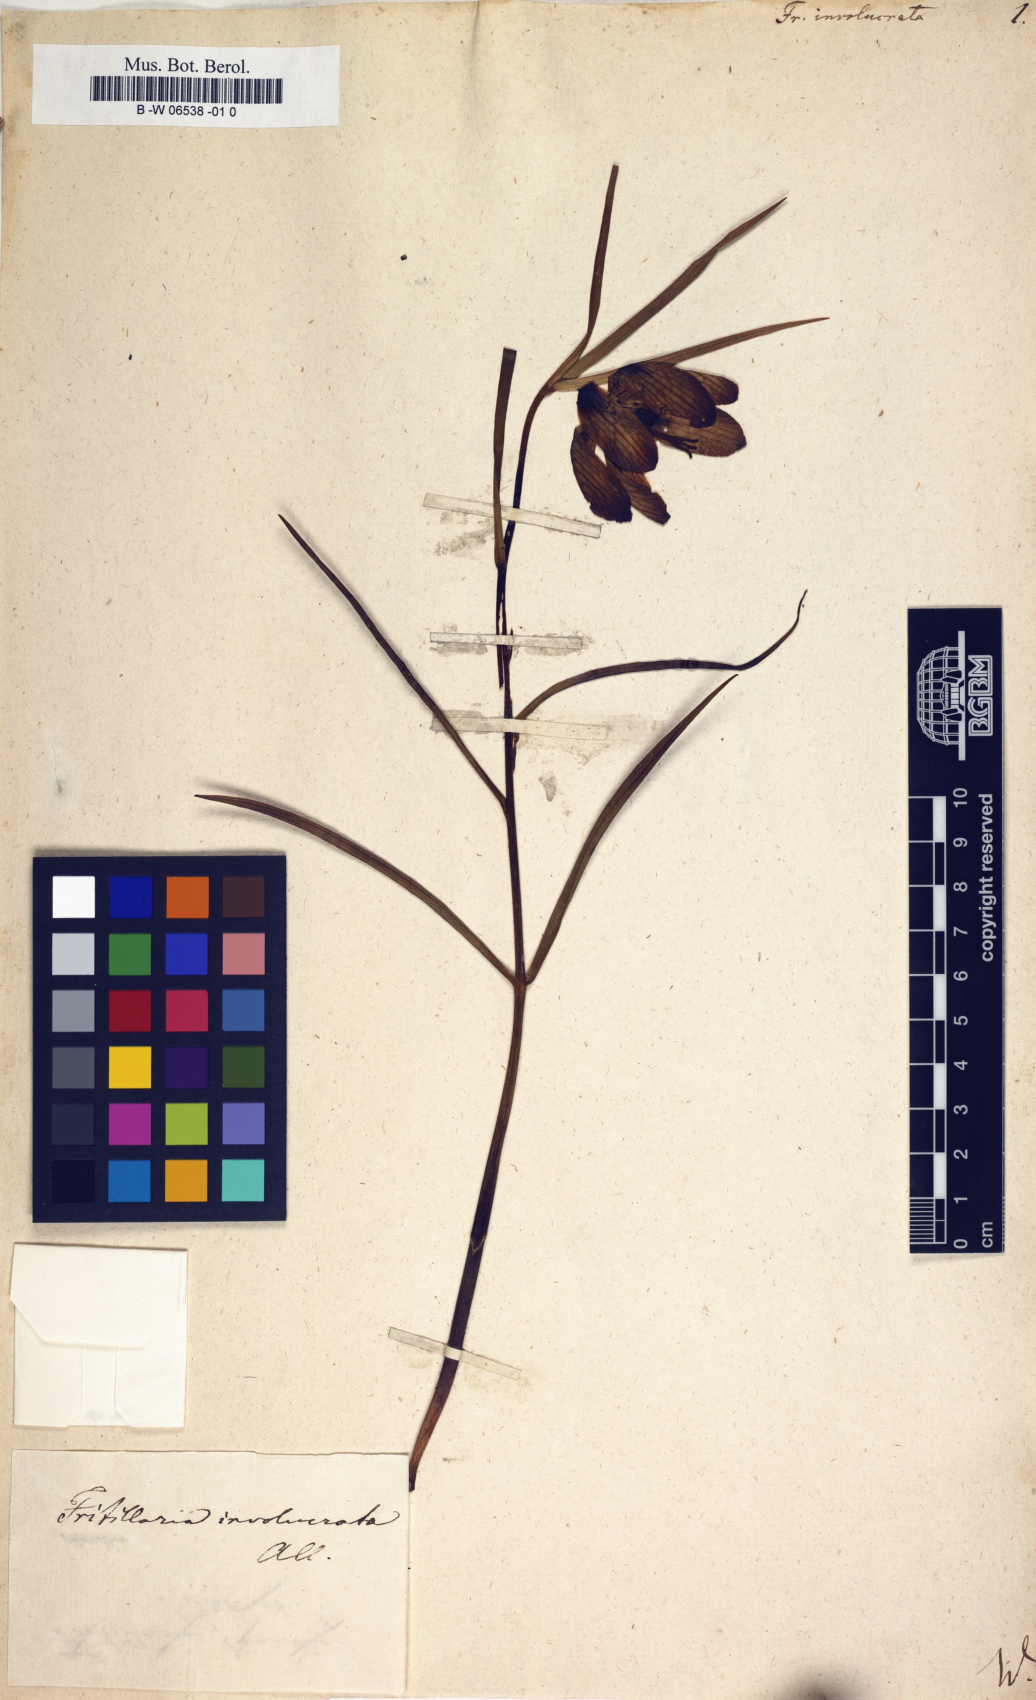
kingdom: Plantae
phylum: Tracheophyta
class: Liliopsida
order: Liliales
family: Liliaceae
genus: Fritillaria
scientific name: Fritillaria involucrata
